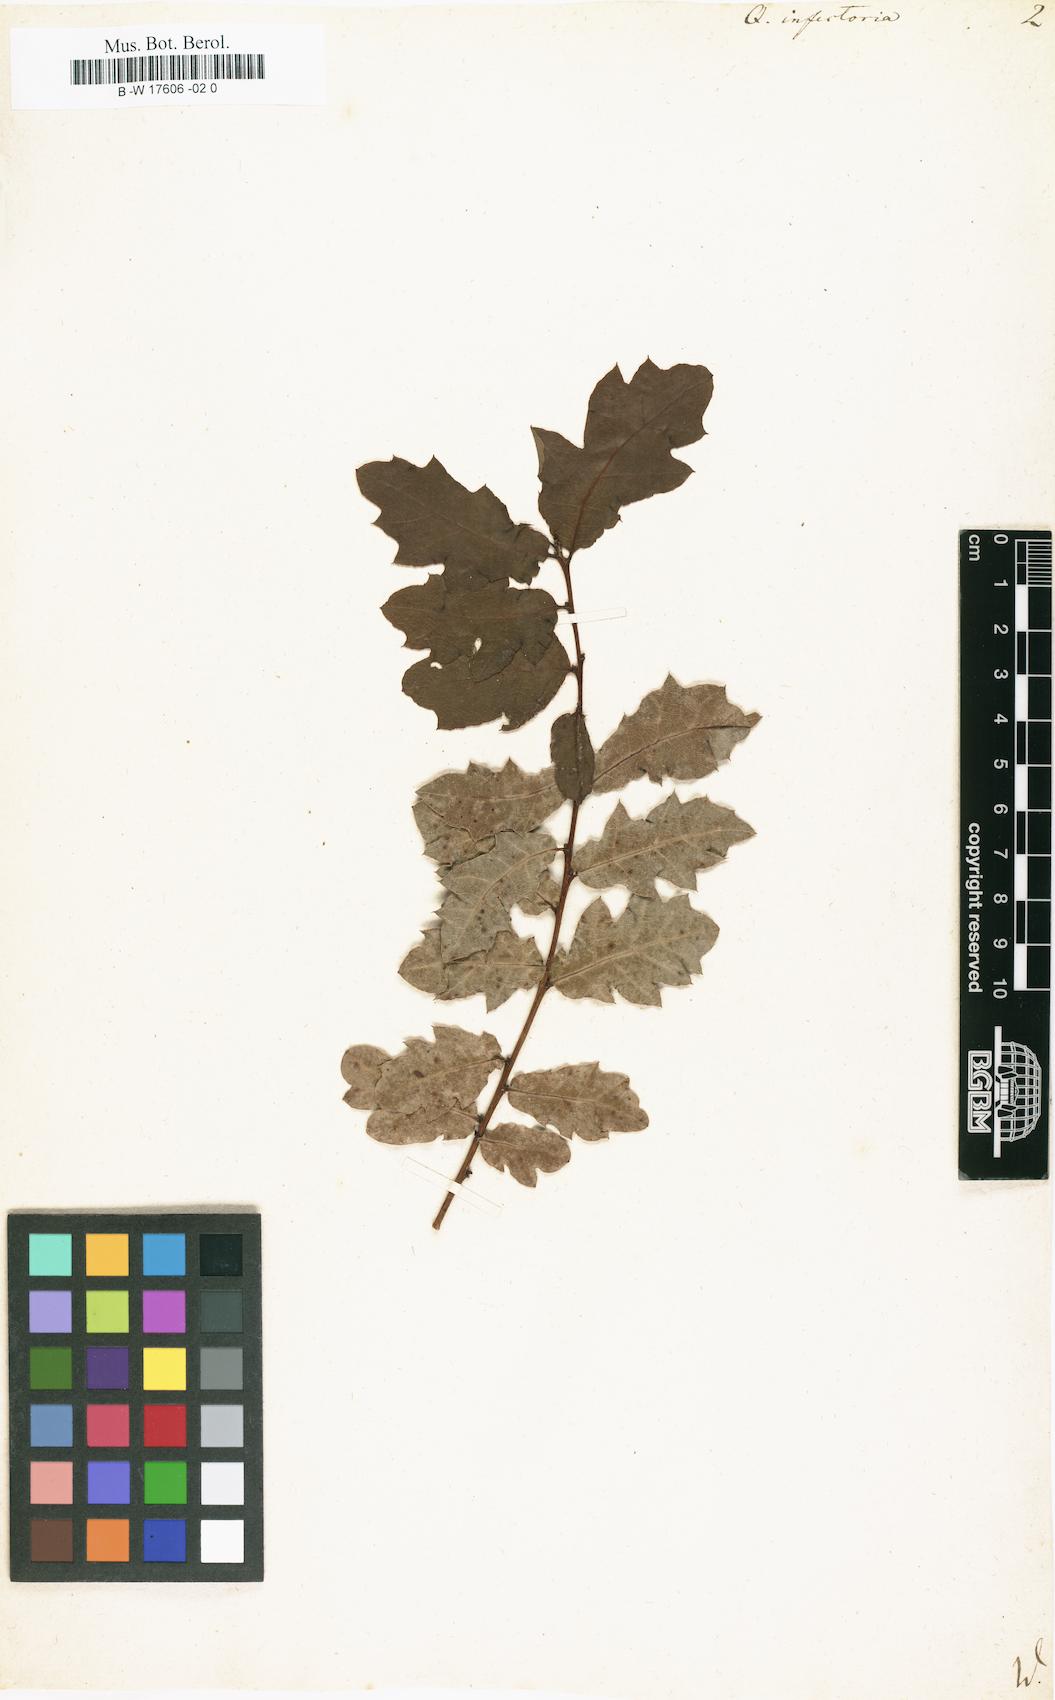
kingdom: Plantae
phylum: Tracheophyta
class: Magnoliopsida
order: Fagales
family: Fagaceae
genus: Quercus
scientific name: Quercus infectoria
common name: Aleppo oak
